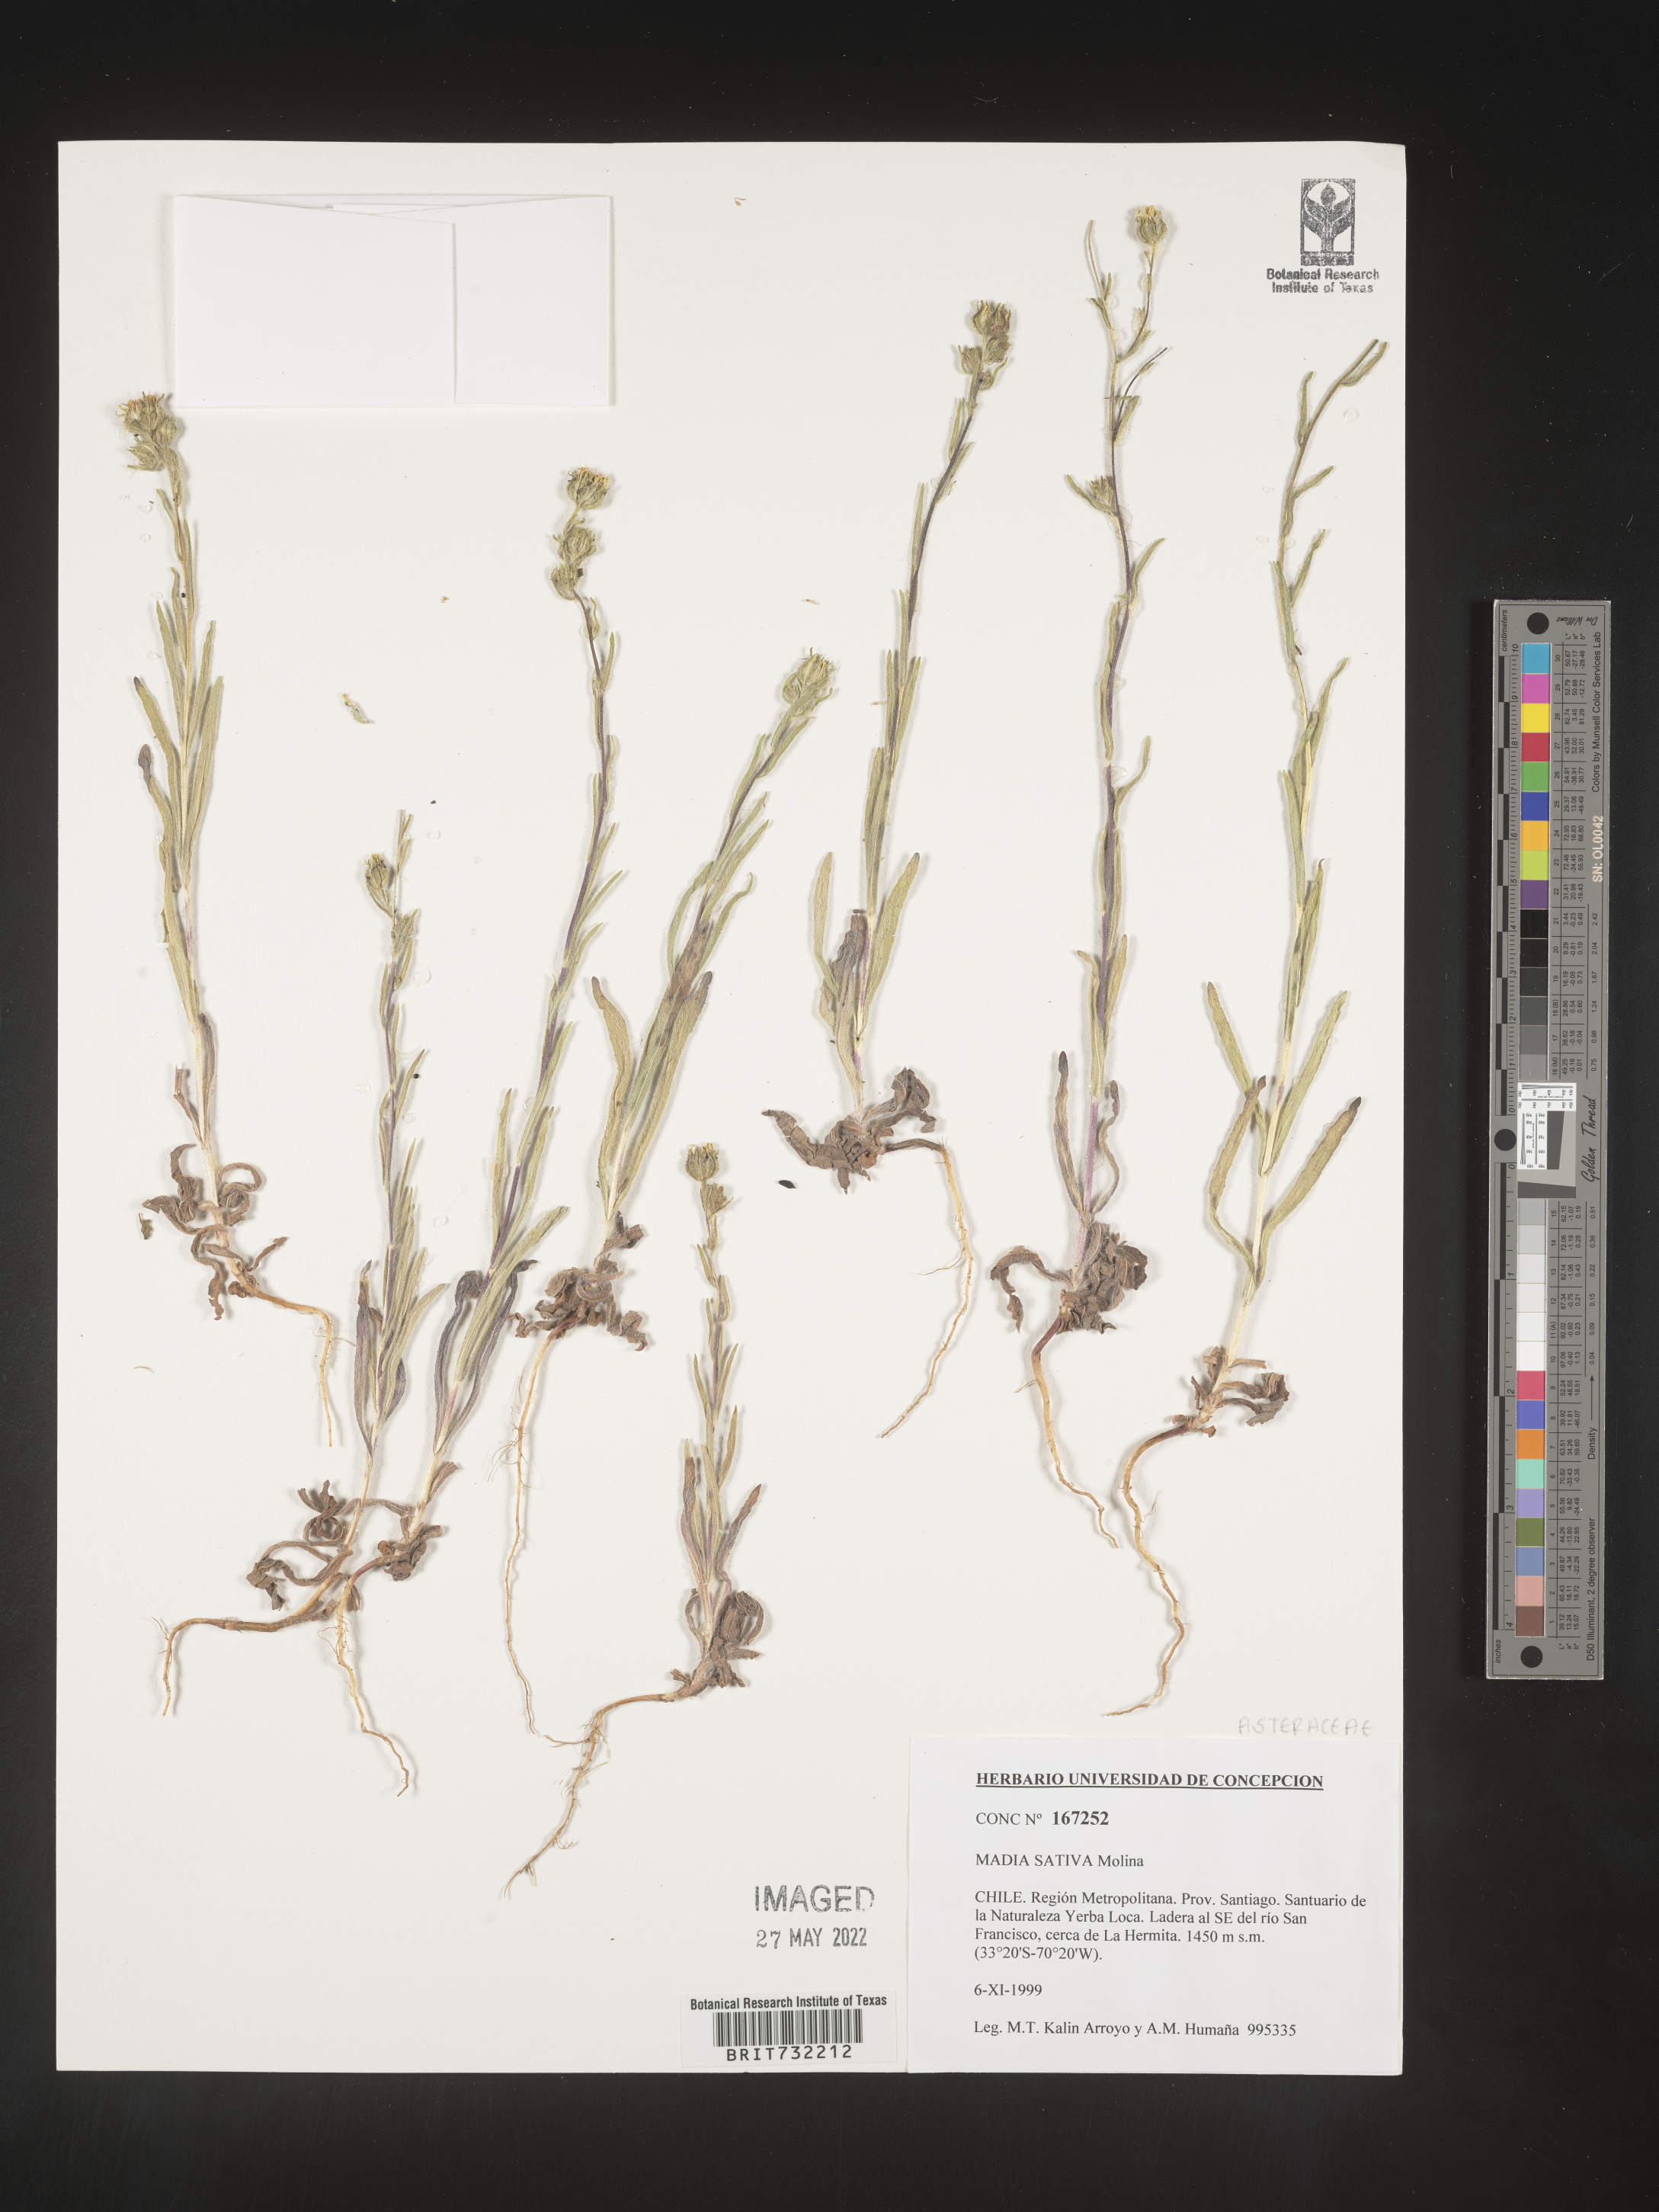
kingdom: Plantae
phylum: Tracheophyta
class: Magnoliopsida
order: Asterales
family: Asteraceae
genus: Madia
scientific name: Madia sativa
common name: Coast tarweed
